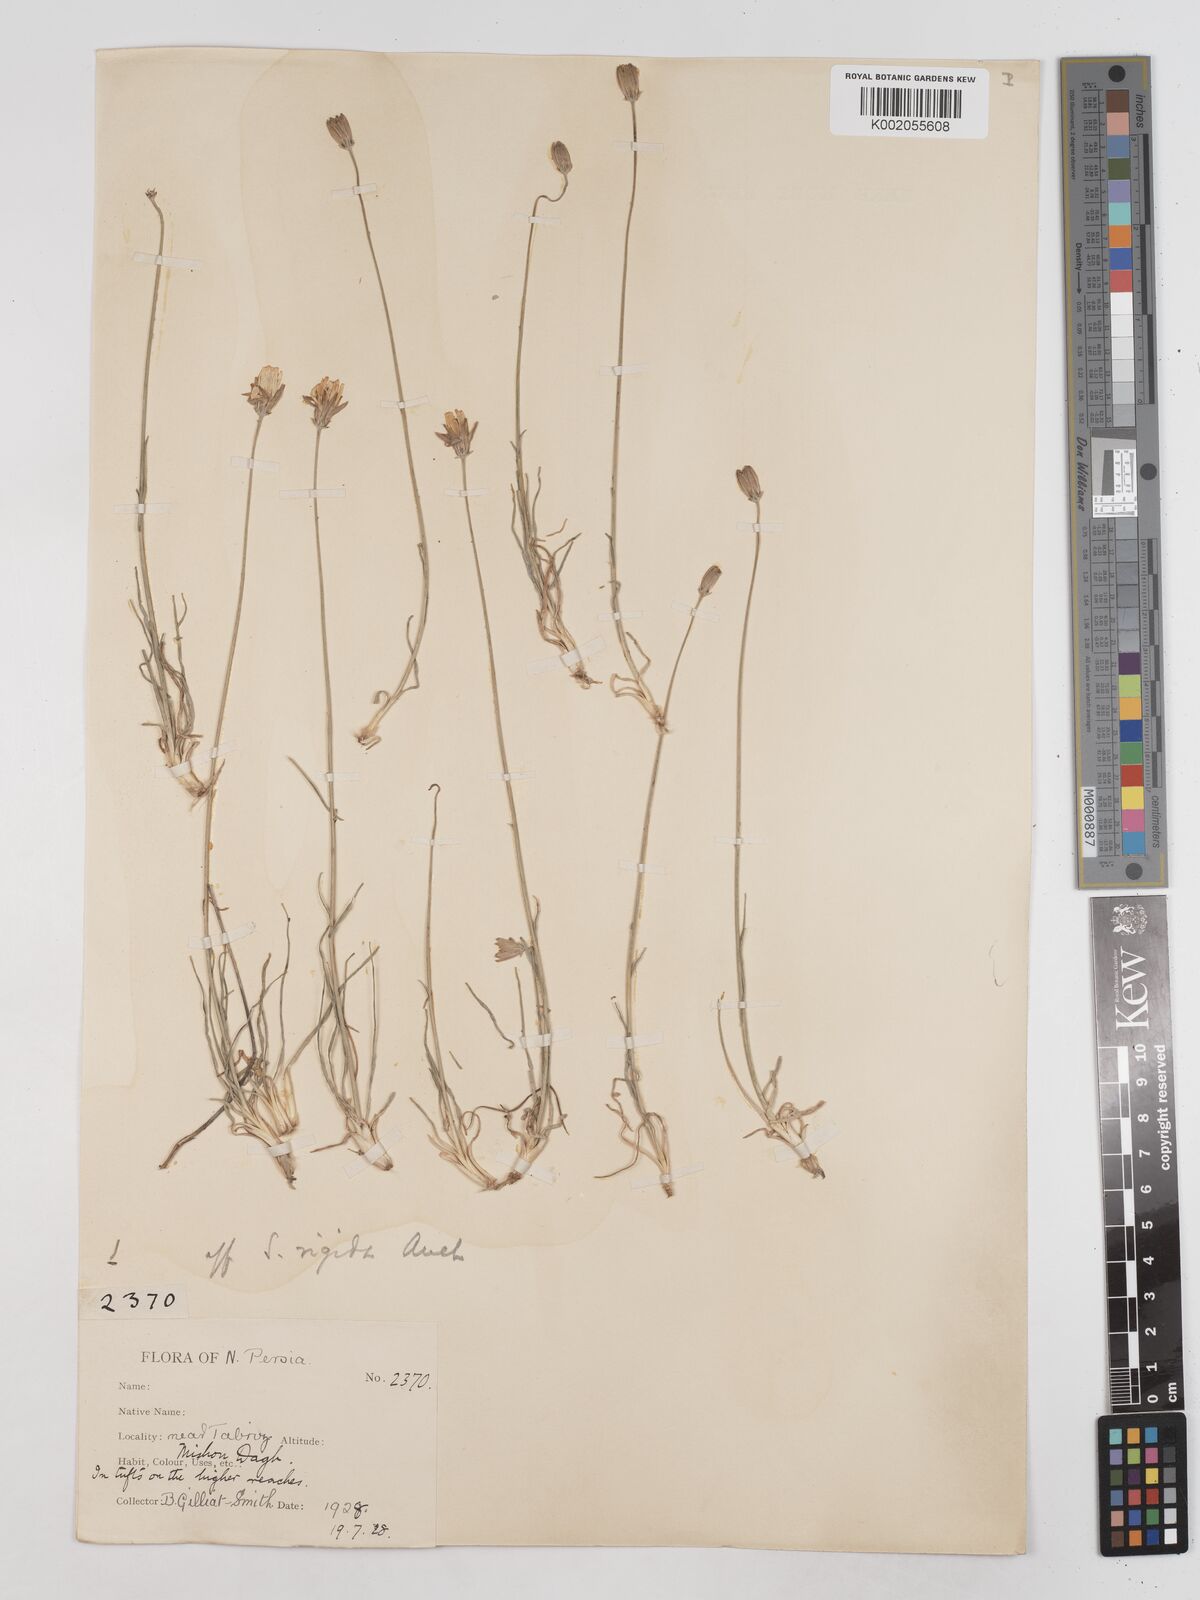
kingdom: Plantae
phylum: Tracheophyta
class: Magnoliopsida
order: Asterales
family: Asteraceae
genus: Goekyighitia
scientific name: Goekyighitia rigida
